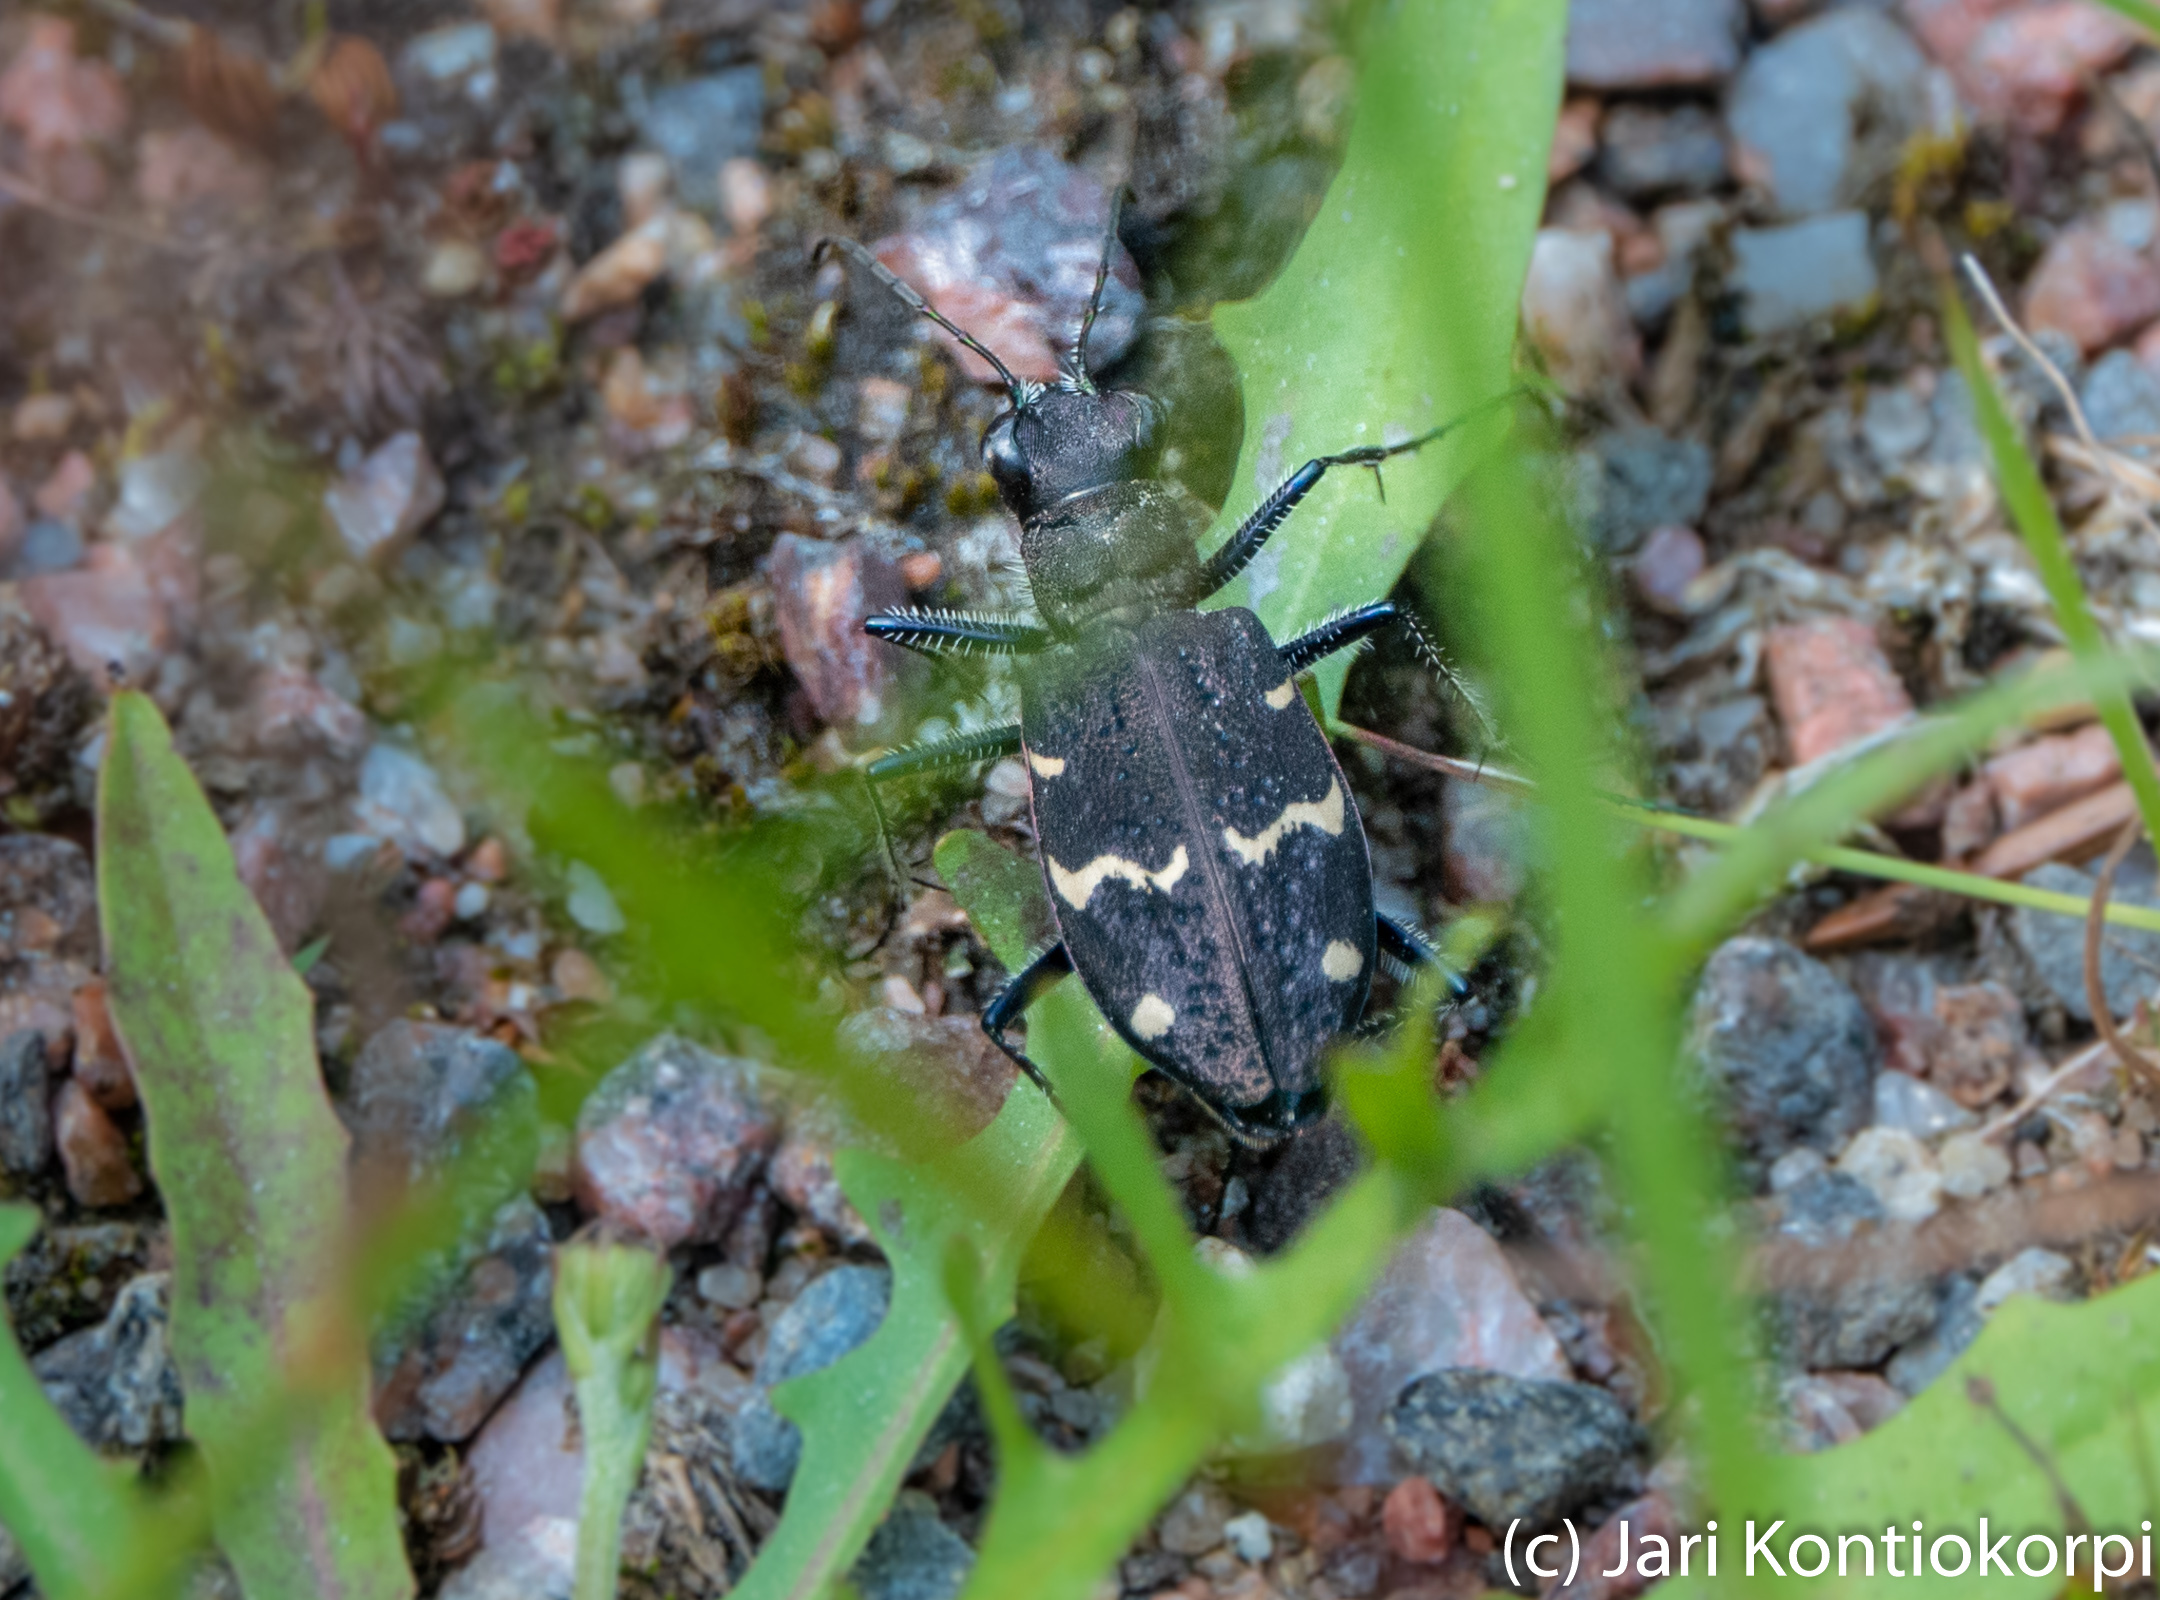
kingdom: Animalia
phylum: Arthropoda
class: Insecta
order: Coleoptera
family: Carabidae
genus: Cicindela
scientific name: Cicindela sylvatica
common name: Heath tiger beetle
